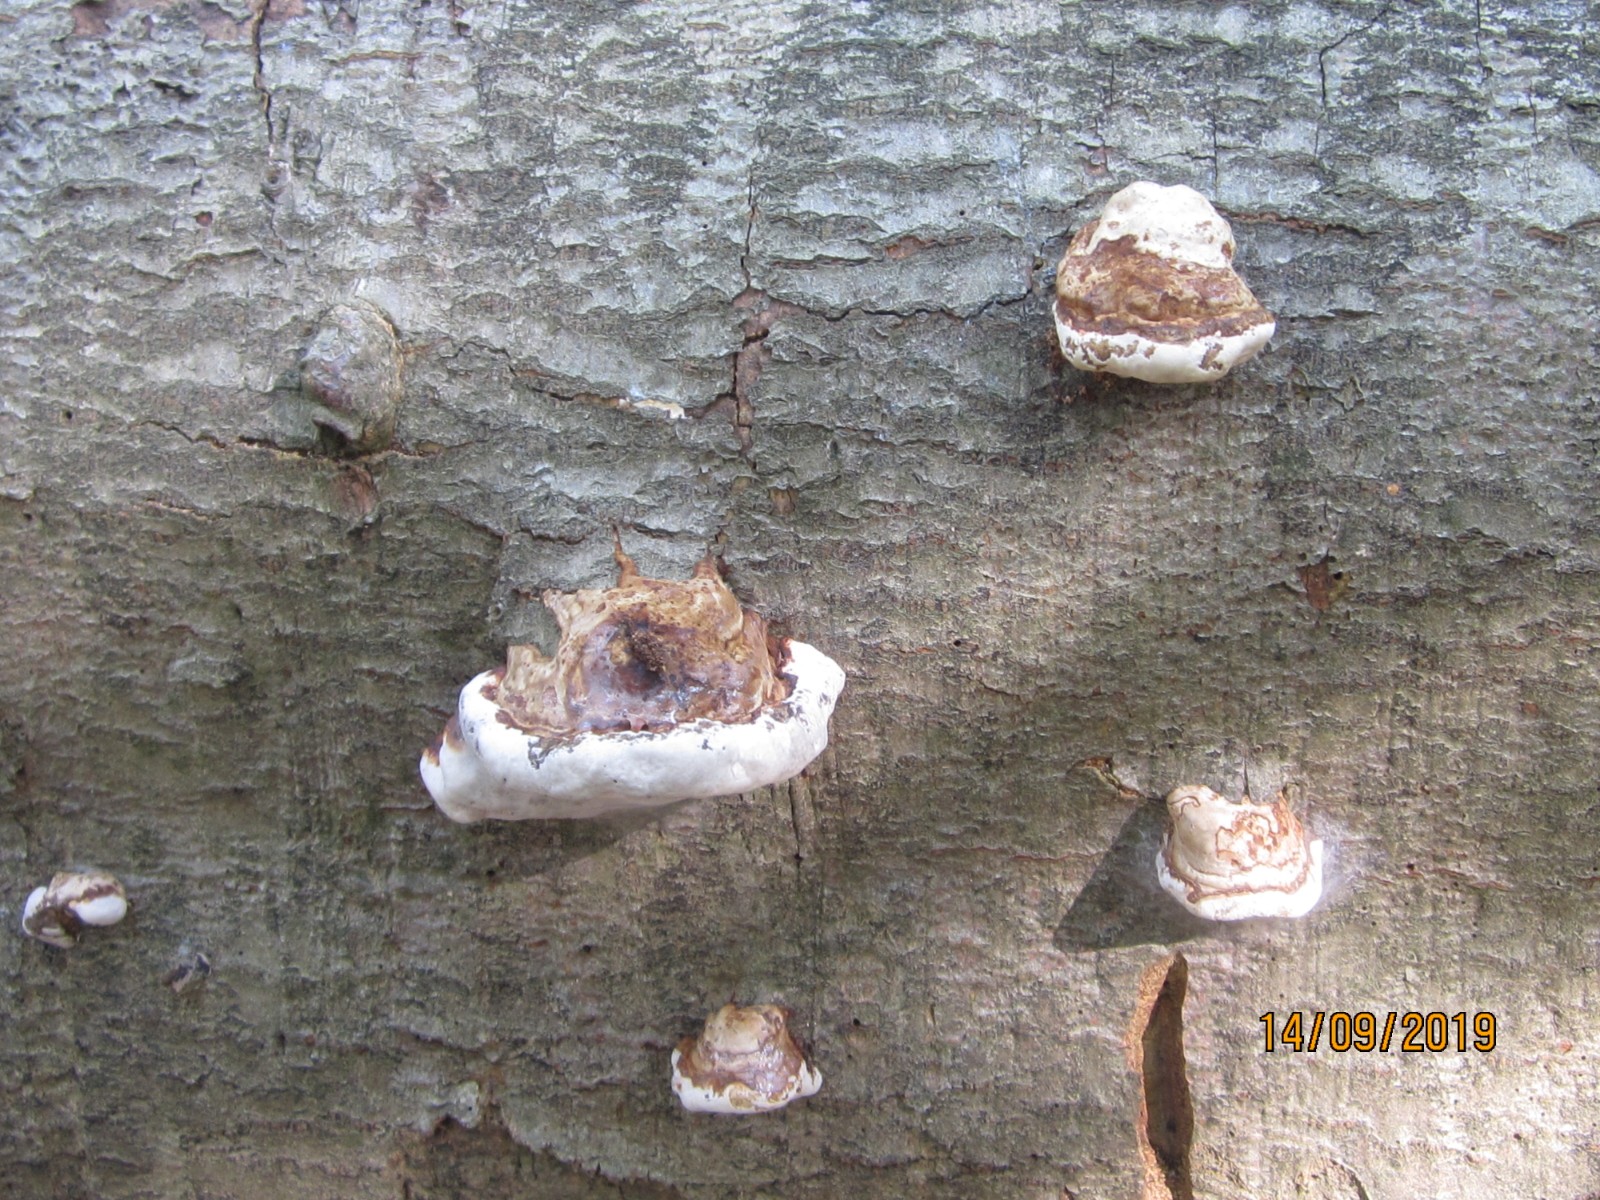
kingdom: Fungi
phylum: Basidiomycota
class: Agaricomycetes
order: Polyporales
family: Polyporaceae
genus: Fomes
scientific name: Fomes fomentarius
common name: tøndersvamp
